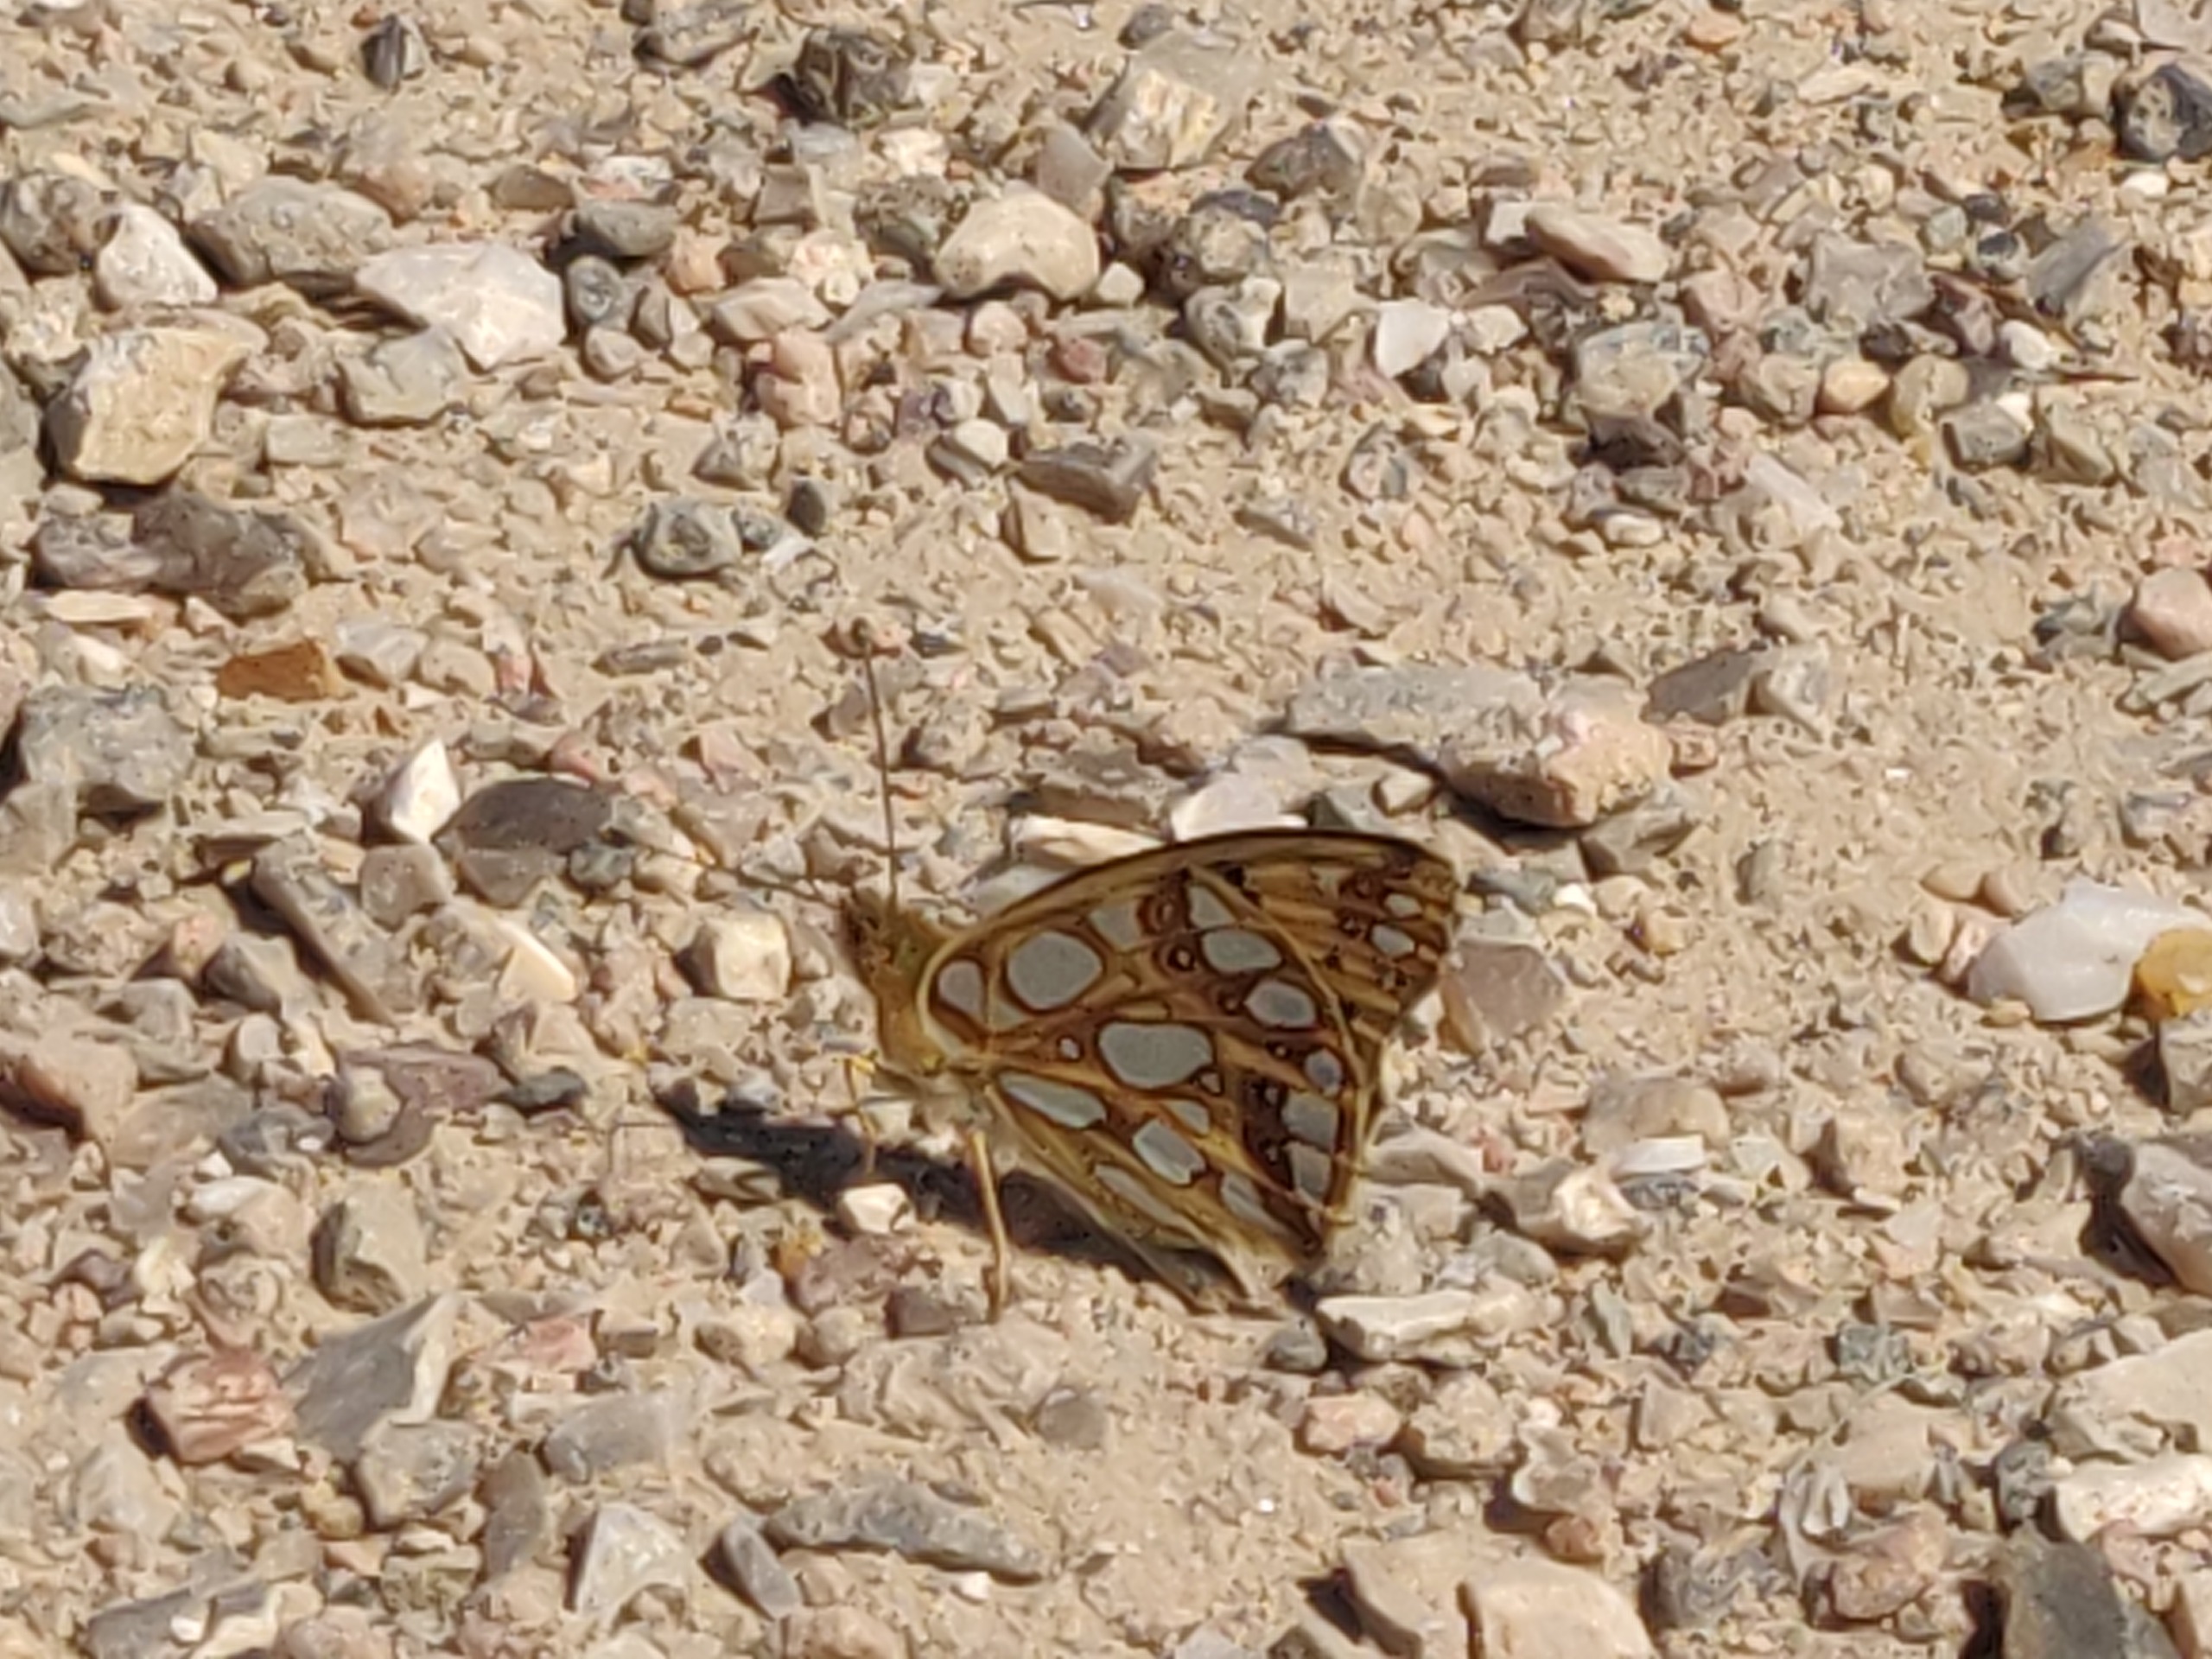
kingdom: Animalia
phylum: Arthropoda
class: Insecta
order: Lepidoptera
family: Nymphalidae
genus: Issoria
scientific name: Issoria lathonia
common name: Storplettet perlemorsommerfugl
